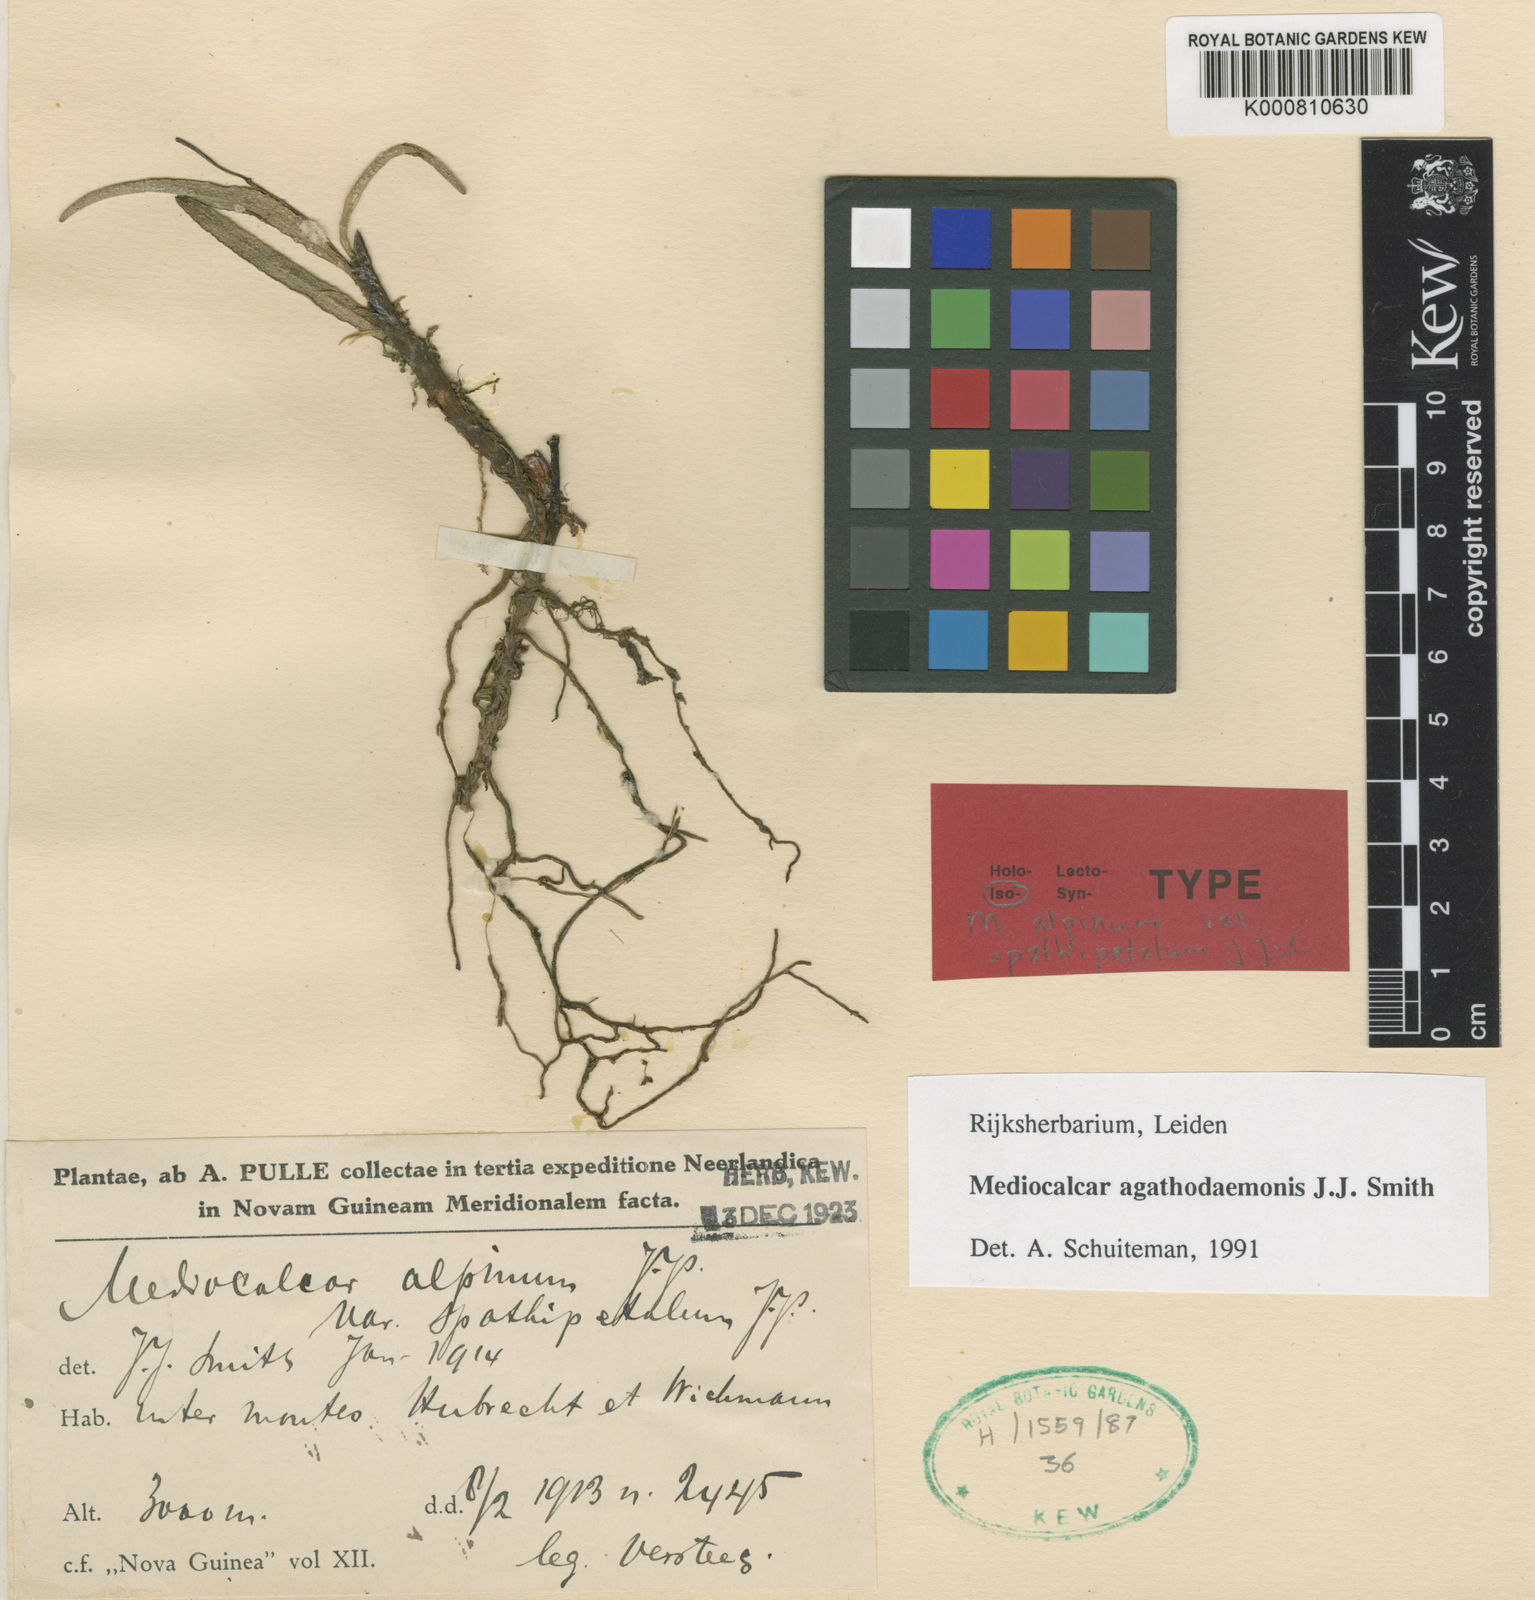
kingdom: Plantae
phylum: Tracheophyta
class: Liliopsida
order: Asparagales
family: Orchidaceae
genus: Mediocalcar
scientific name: Mediocalcar agathodaemonis
